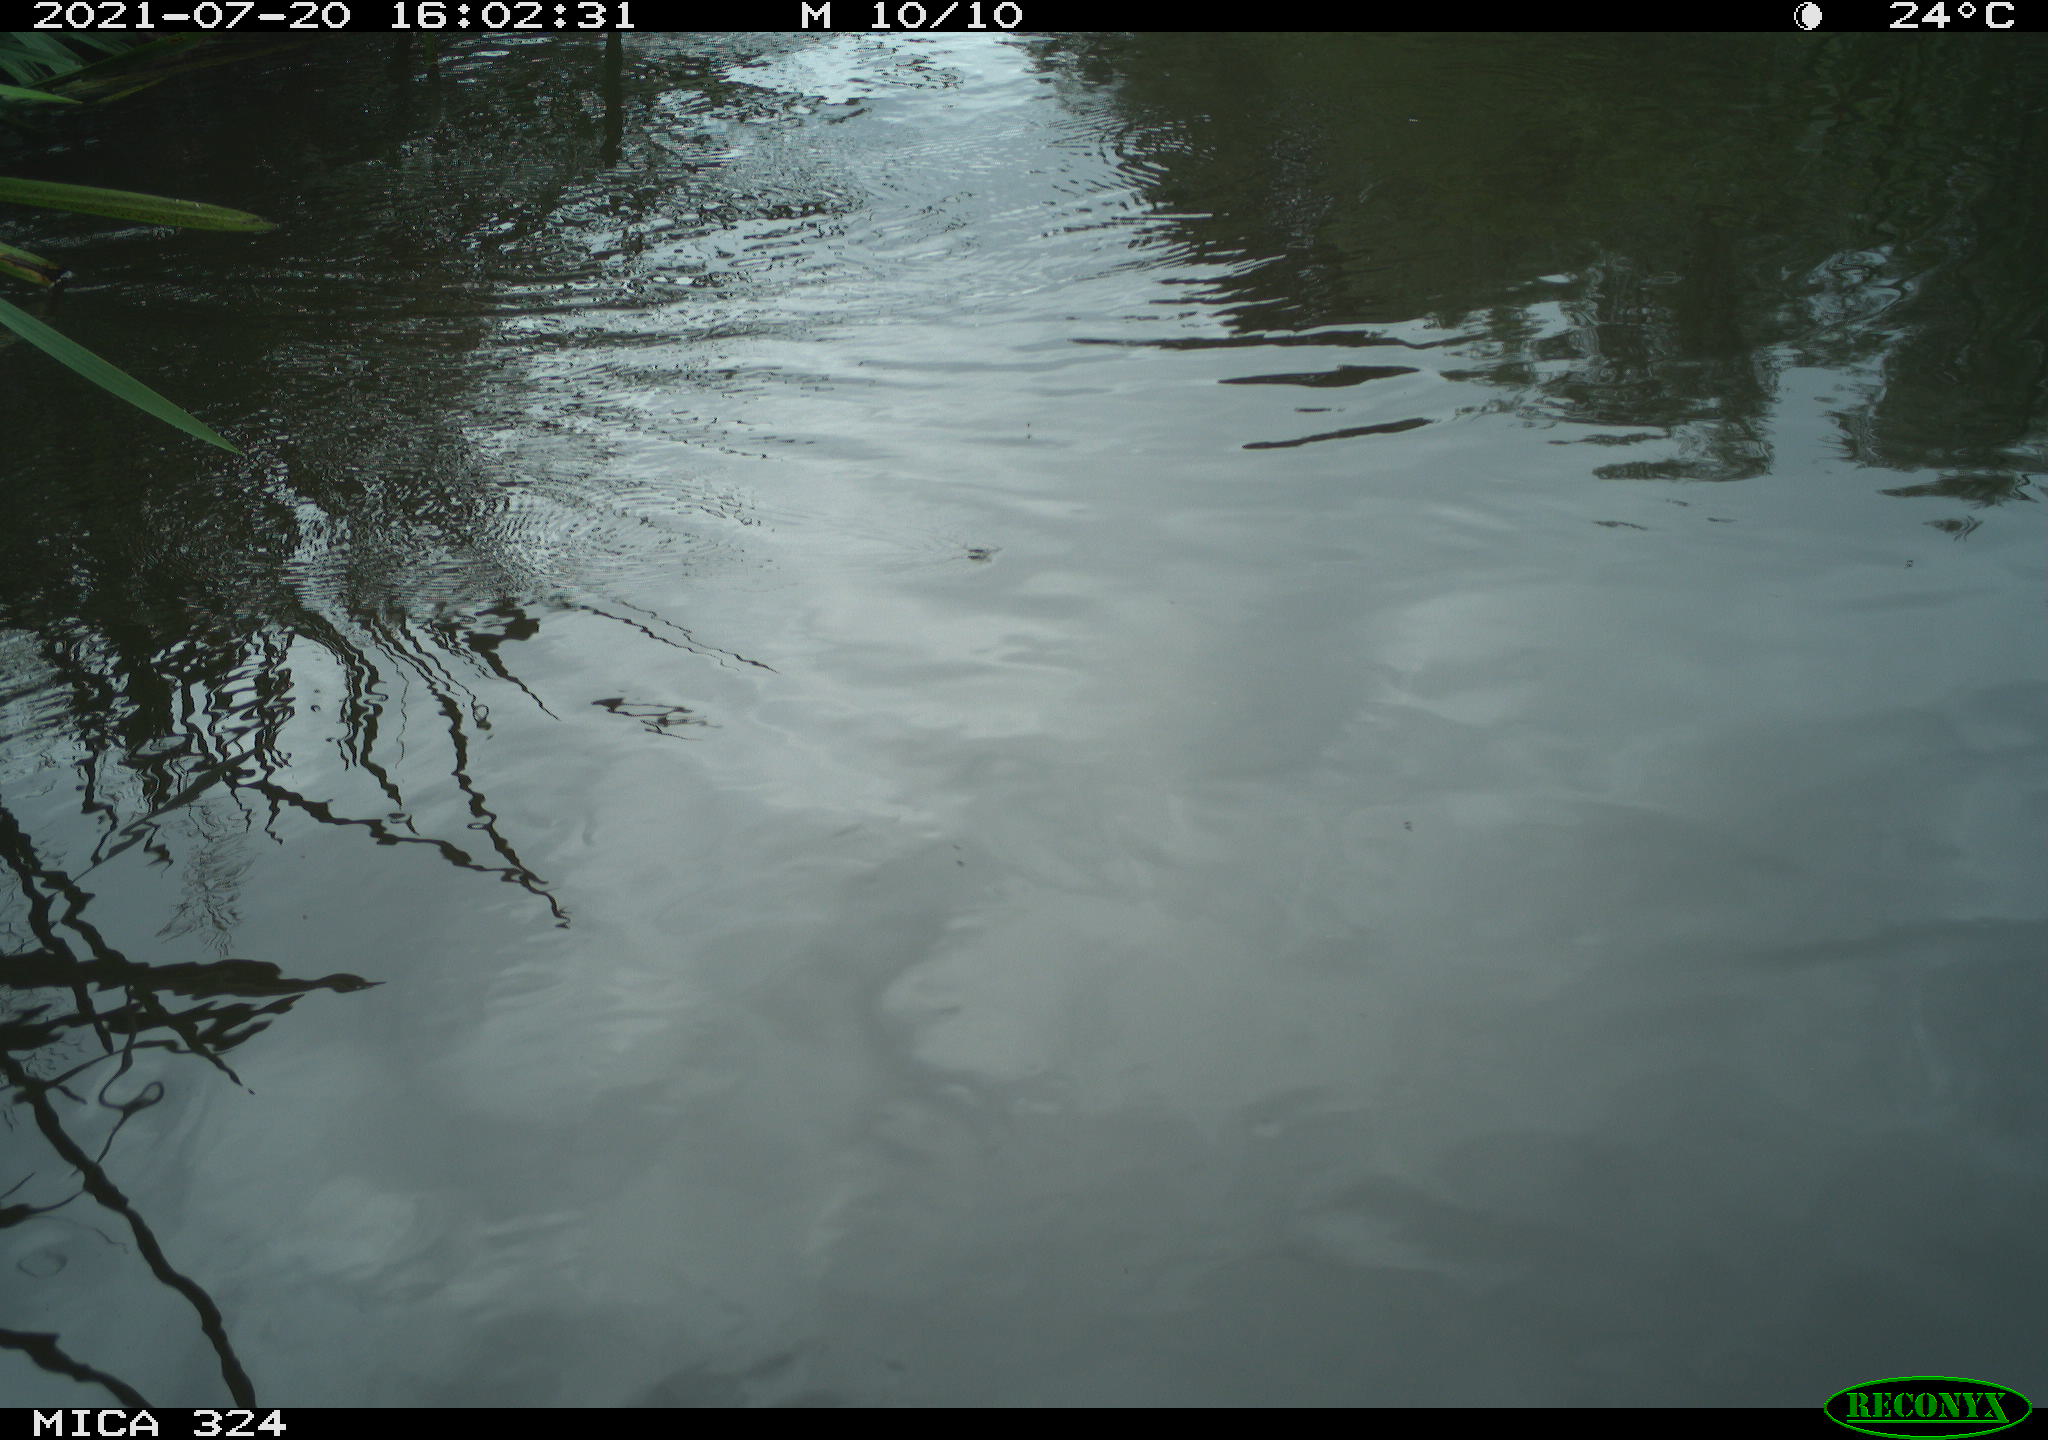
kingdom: Animalia
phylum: Chordata
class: Aves
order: Gruiformes
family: Rallidae
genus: Gallinula
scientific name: Gallinula chloropus
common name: Common moorhen
